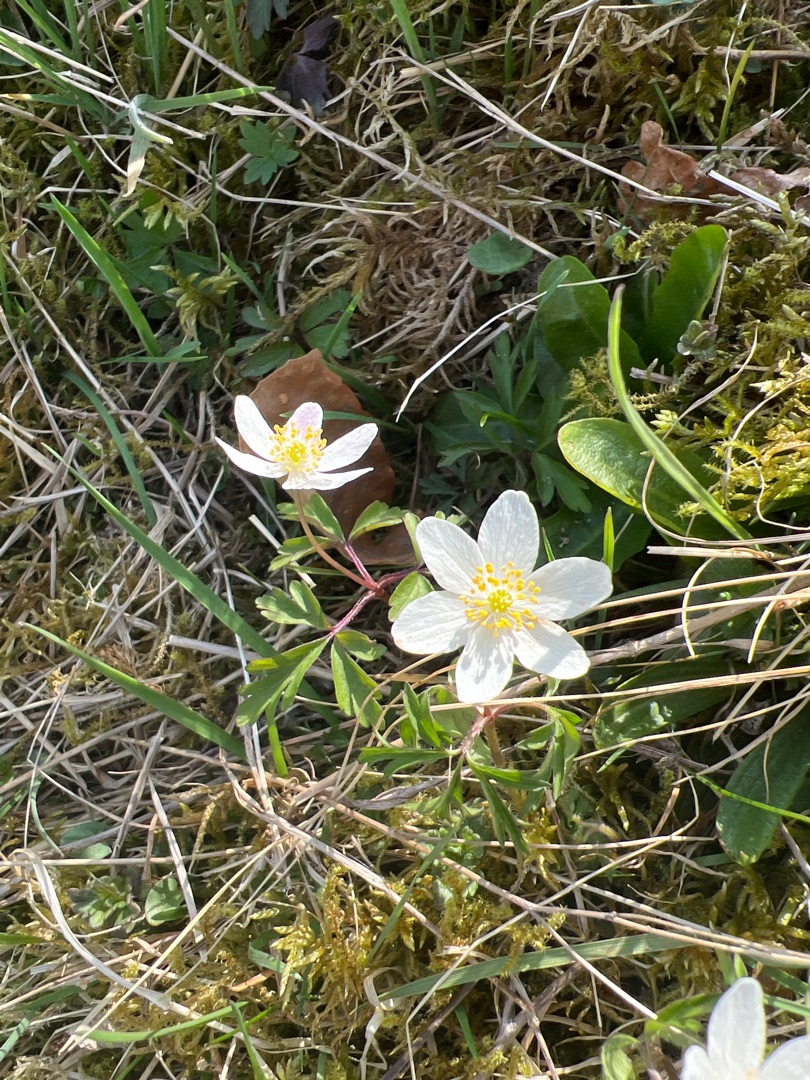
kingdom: Plantae
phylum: Tracheophyta
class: Magnoliopsida
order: Ranunculales
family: Ranunculaceae
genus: Anemone
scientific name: Anemone nemorosa
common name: Hvid anemone
